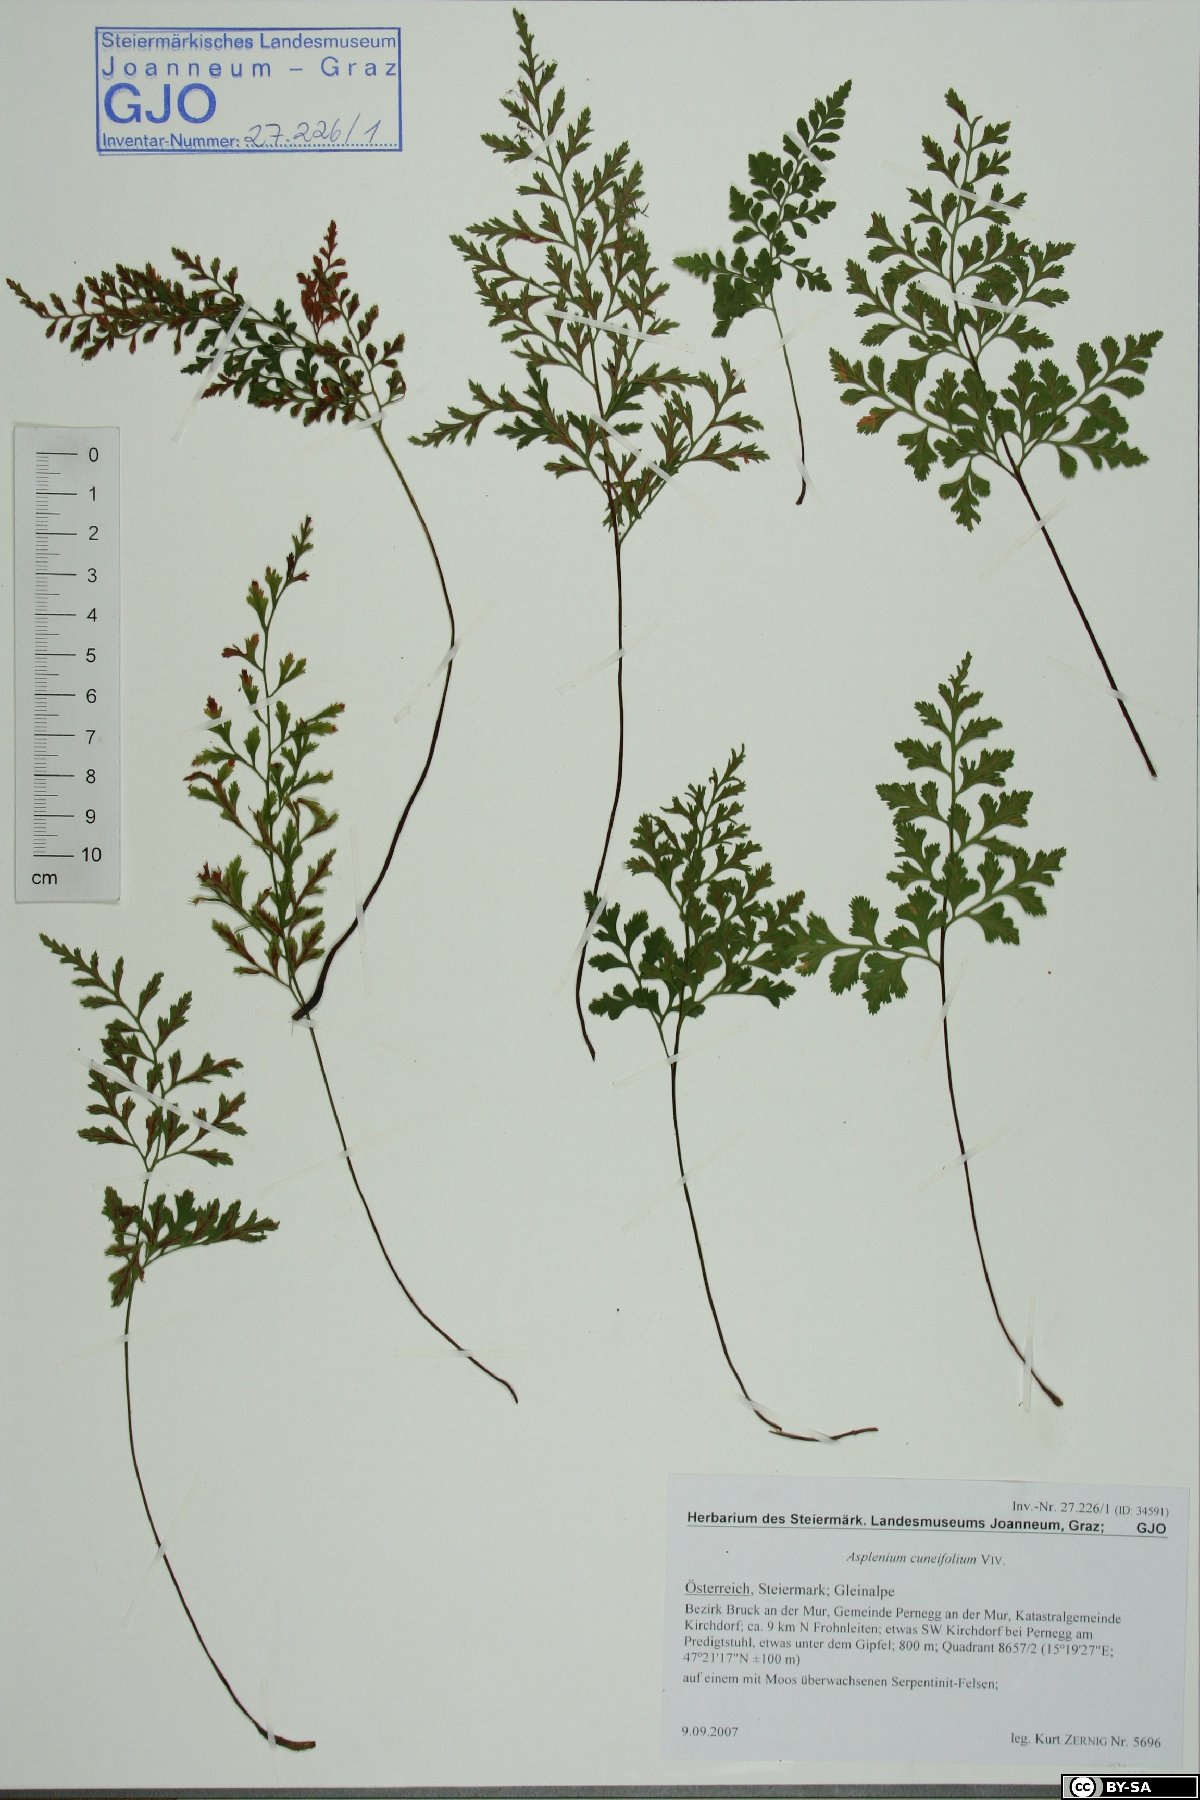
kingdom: Plantae
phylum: Tracheophyta
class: Polypodiopsida
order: Polypodiales
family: Aspleniaceae
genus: Asplenium
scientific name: Asplenium cuneifolium
